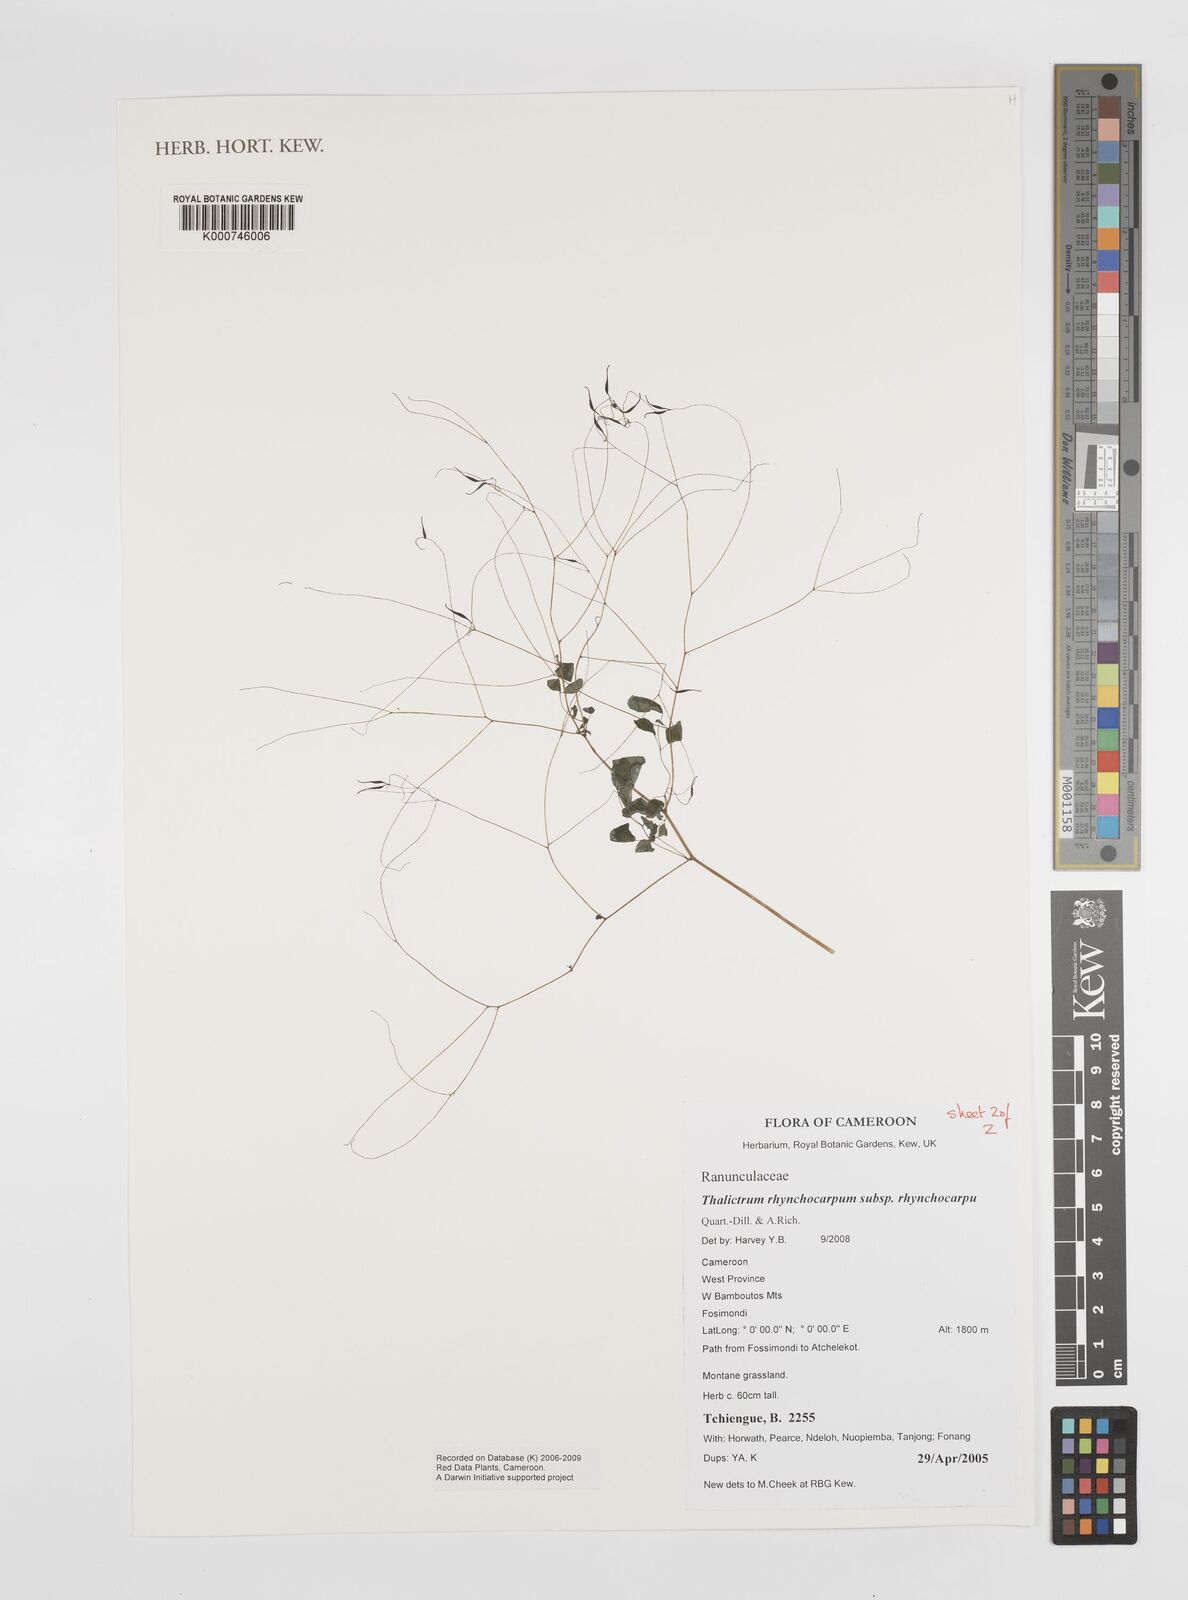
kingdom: Plantae
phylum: Tracheophyta
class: Magnoliopsida
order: Ranunculales
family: Ranunculaceae
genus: Thalictrum
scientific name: Thalictrum rhynchocarpum
